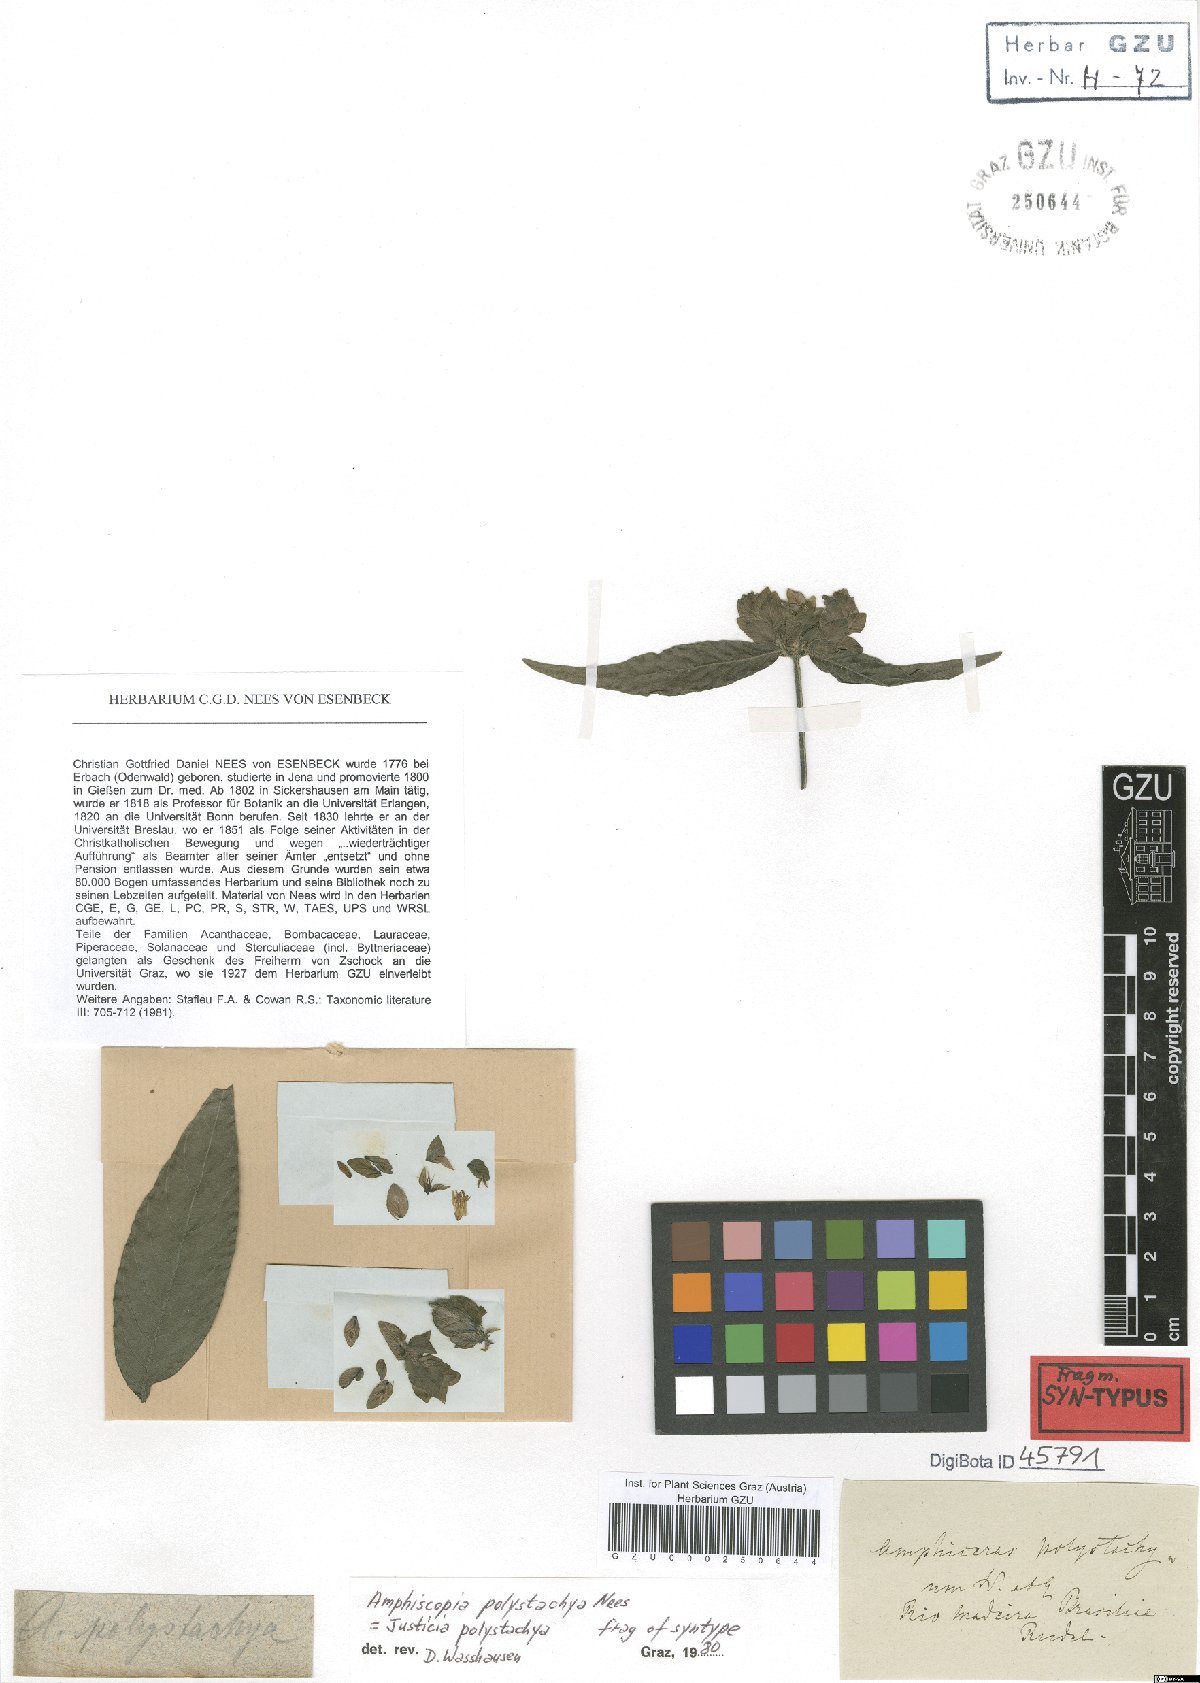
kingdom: Plantae
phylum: Tracheophyta
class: Magnoliopsida
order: Lamiales
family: Acanthaceae
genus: Justicia
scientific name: Justicia polystachya
